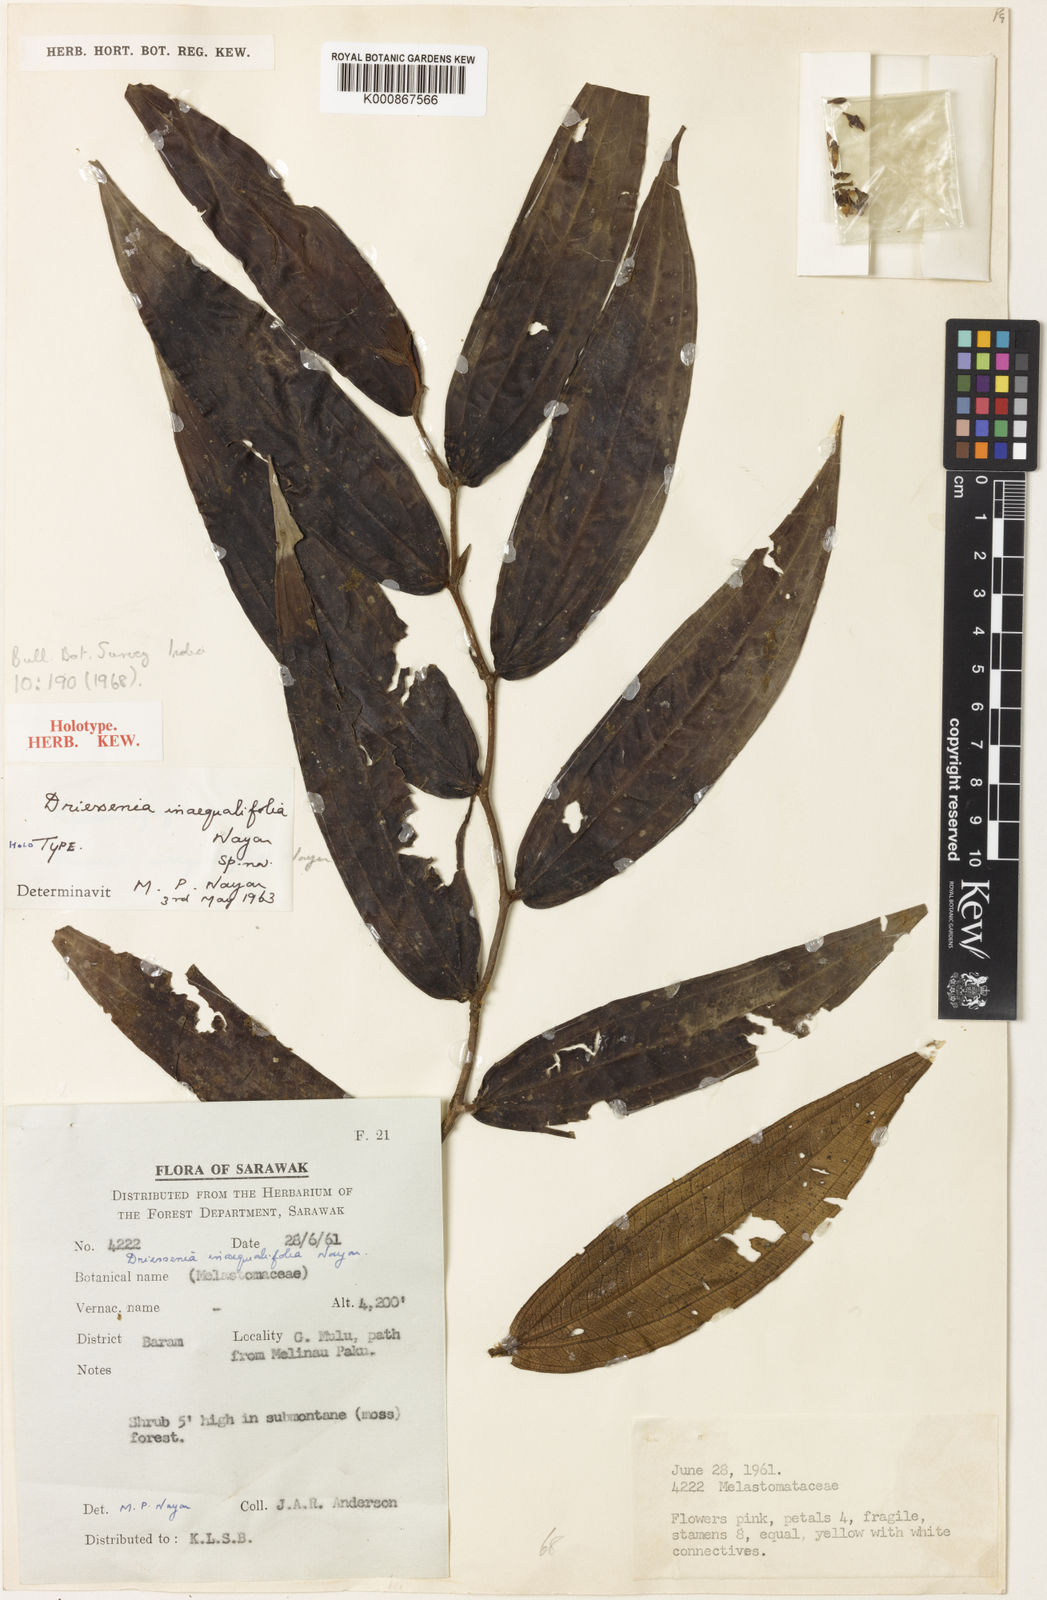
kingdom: Plantae
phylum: Tracheophyta
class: Magnoliopsida
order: Myrtales
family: Melastomataceae
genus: Driessenia
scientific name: Driessenia inaequalifolia
